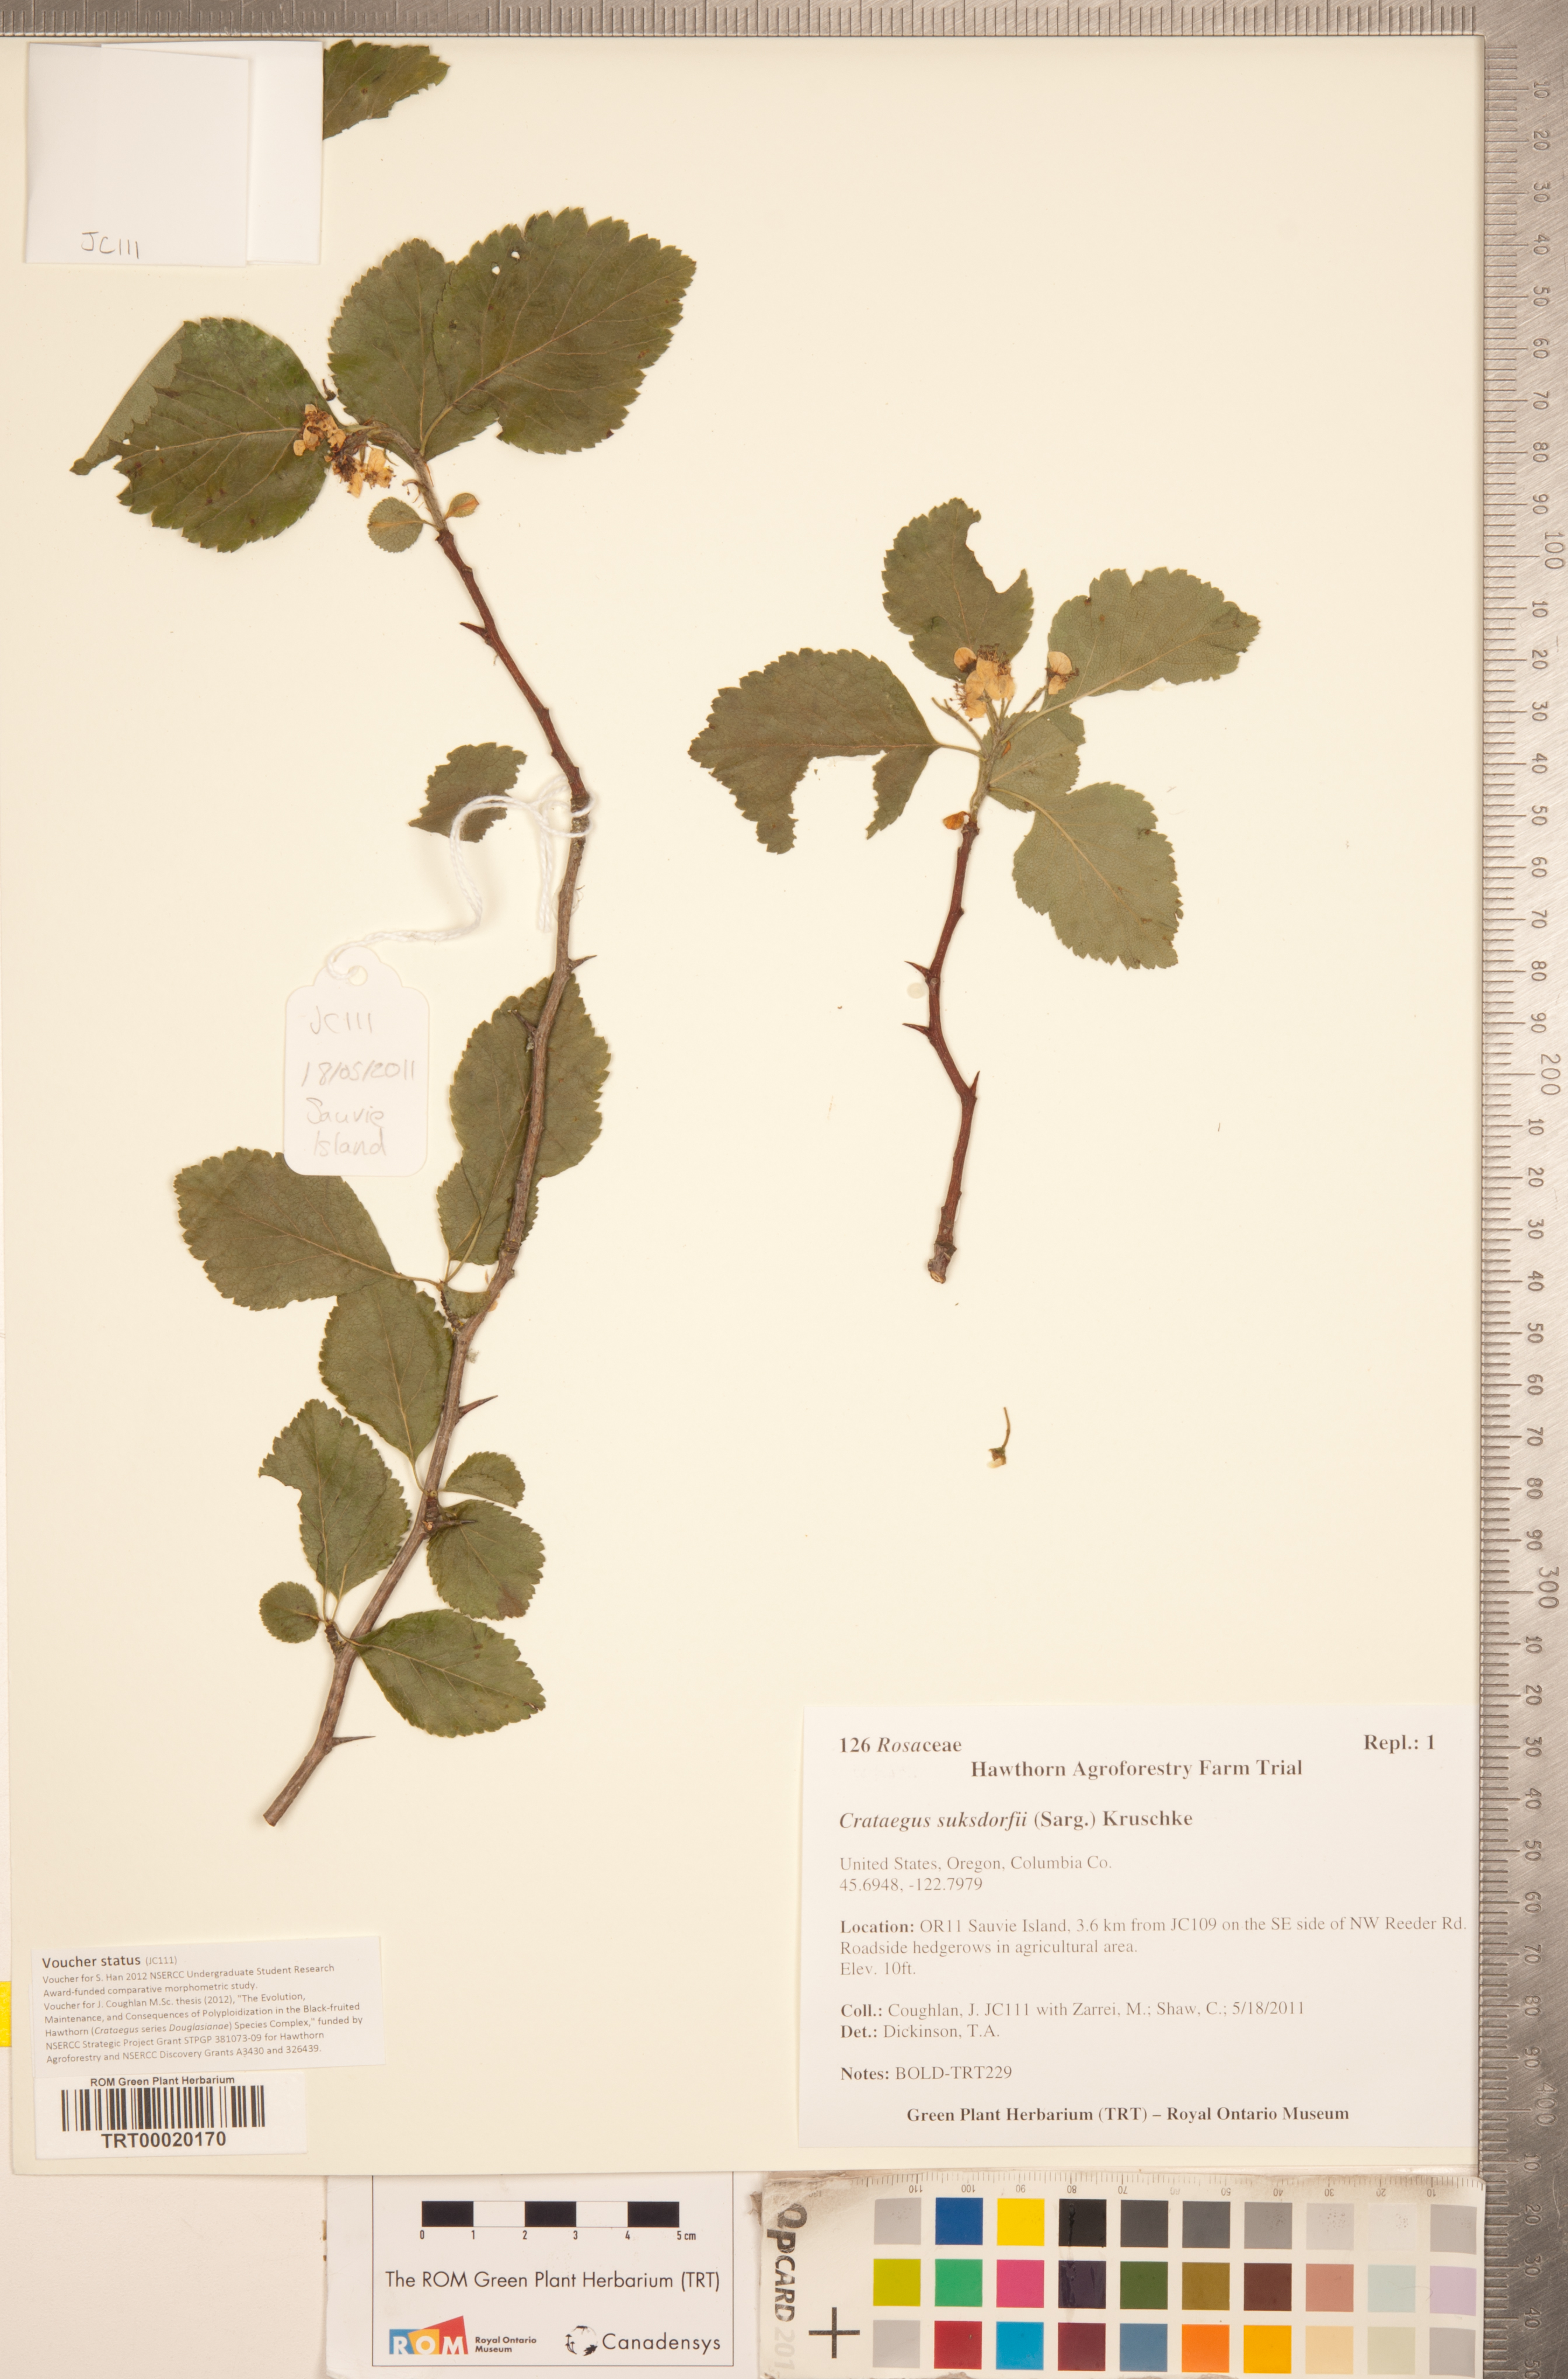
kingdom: Plantae
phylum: Tracheophyta
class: Magnoliopsida
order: Rosales
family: Rosaceae
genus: Crataegus
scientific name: Crataegus gaylussacia
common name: Huckleberry hawthorn
